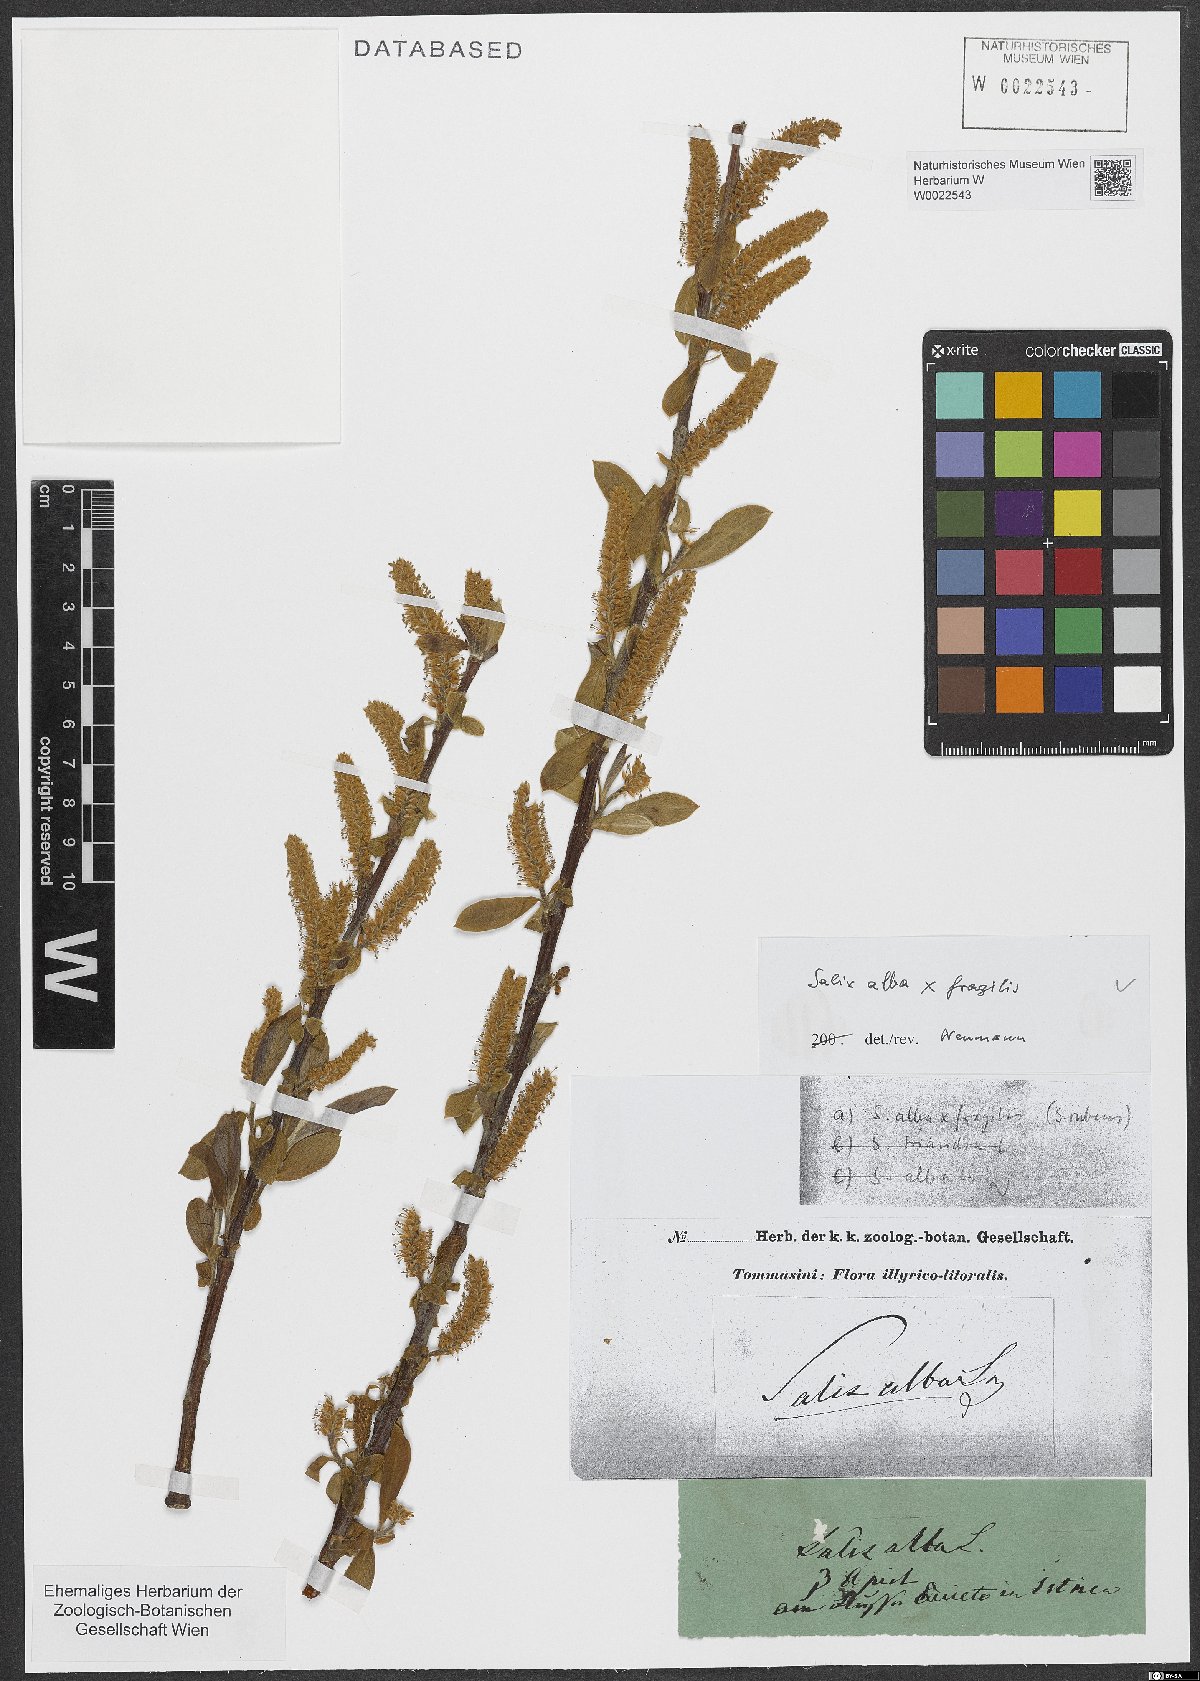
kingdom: Plantae
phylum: Tracheophyta
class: Magnoliopsida
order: Malpighiales
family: Salicaceae
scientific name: Salicaceae
